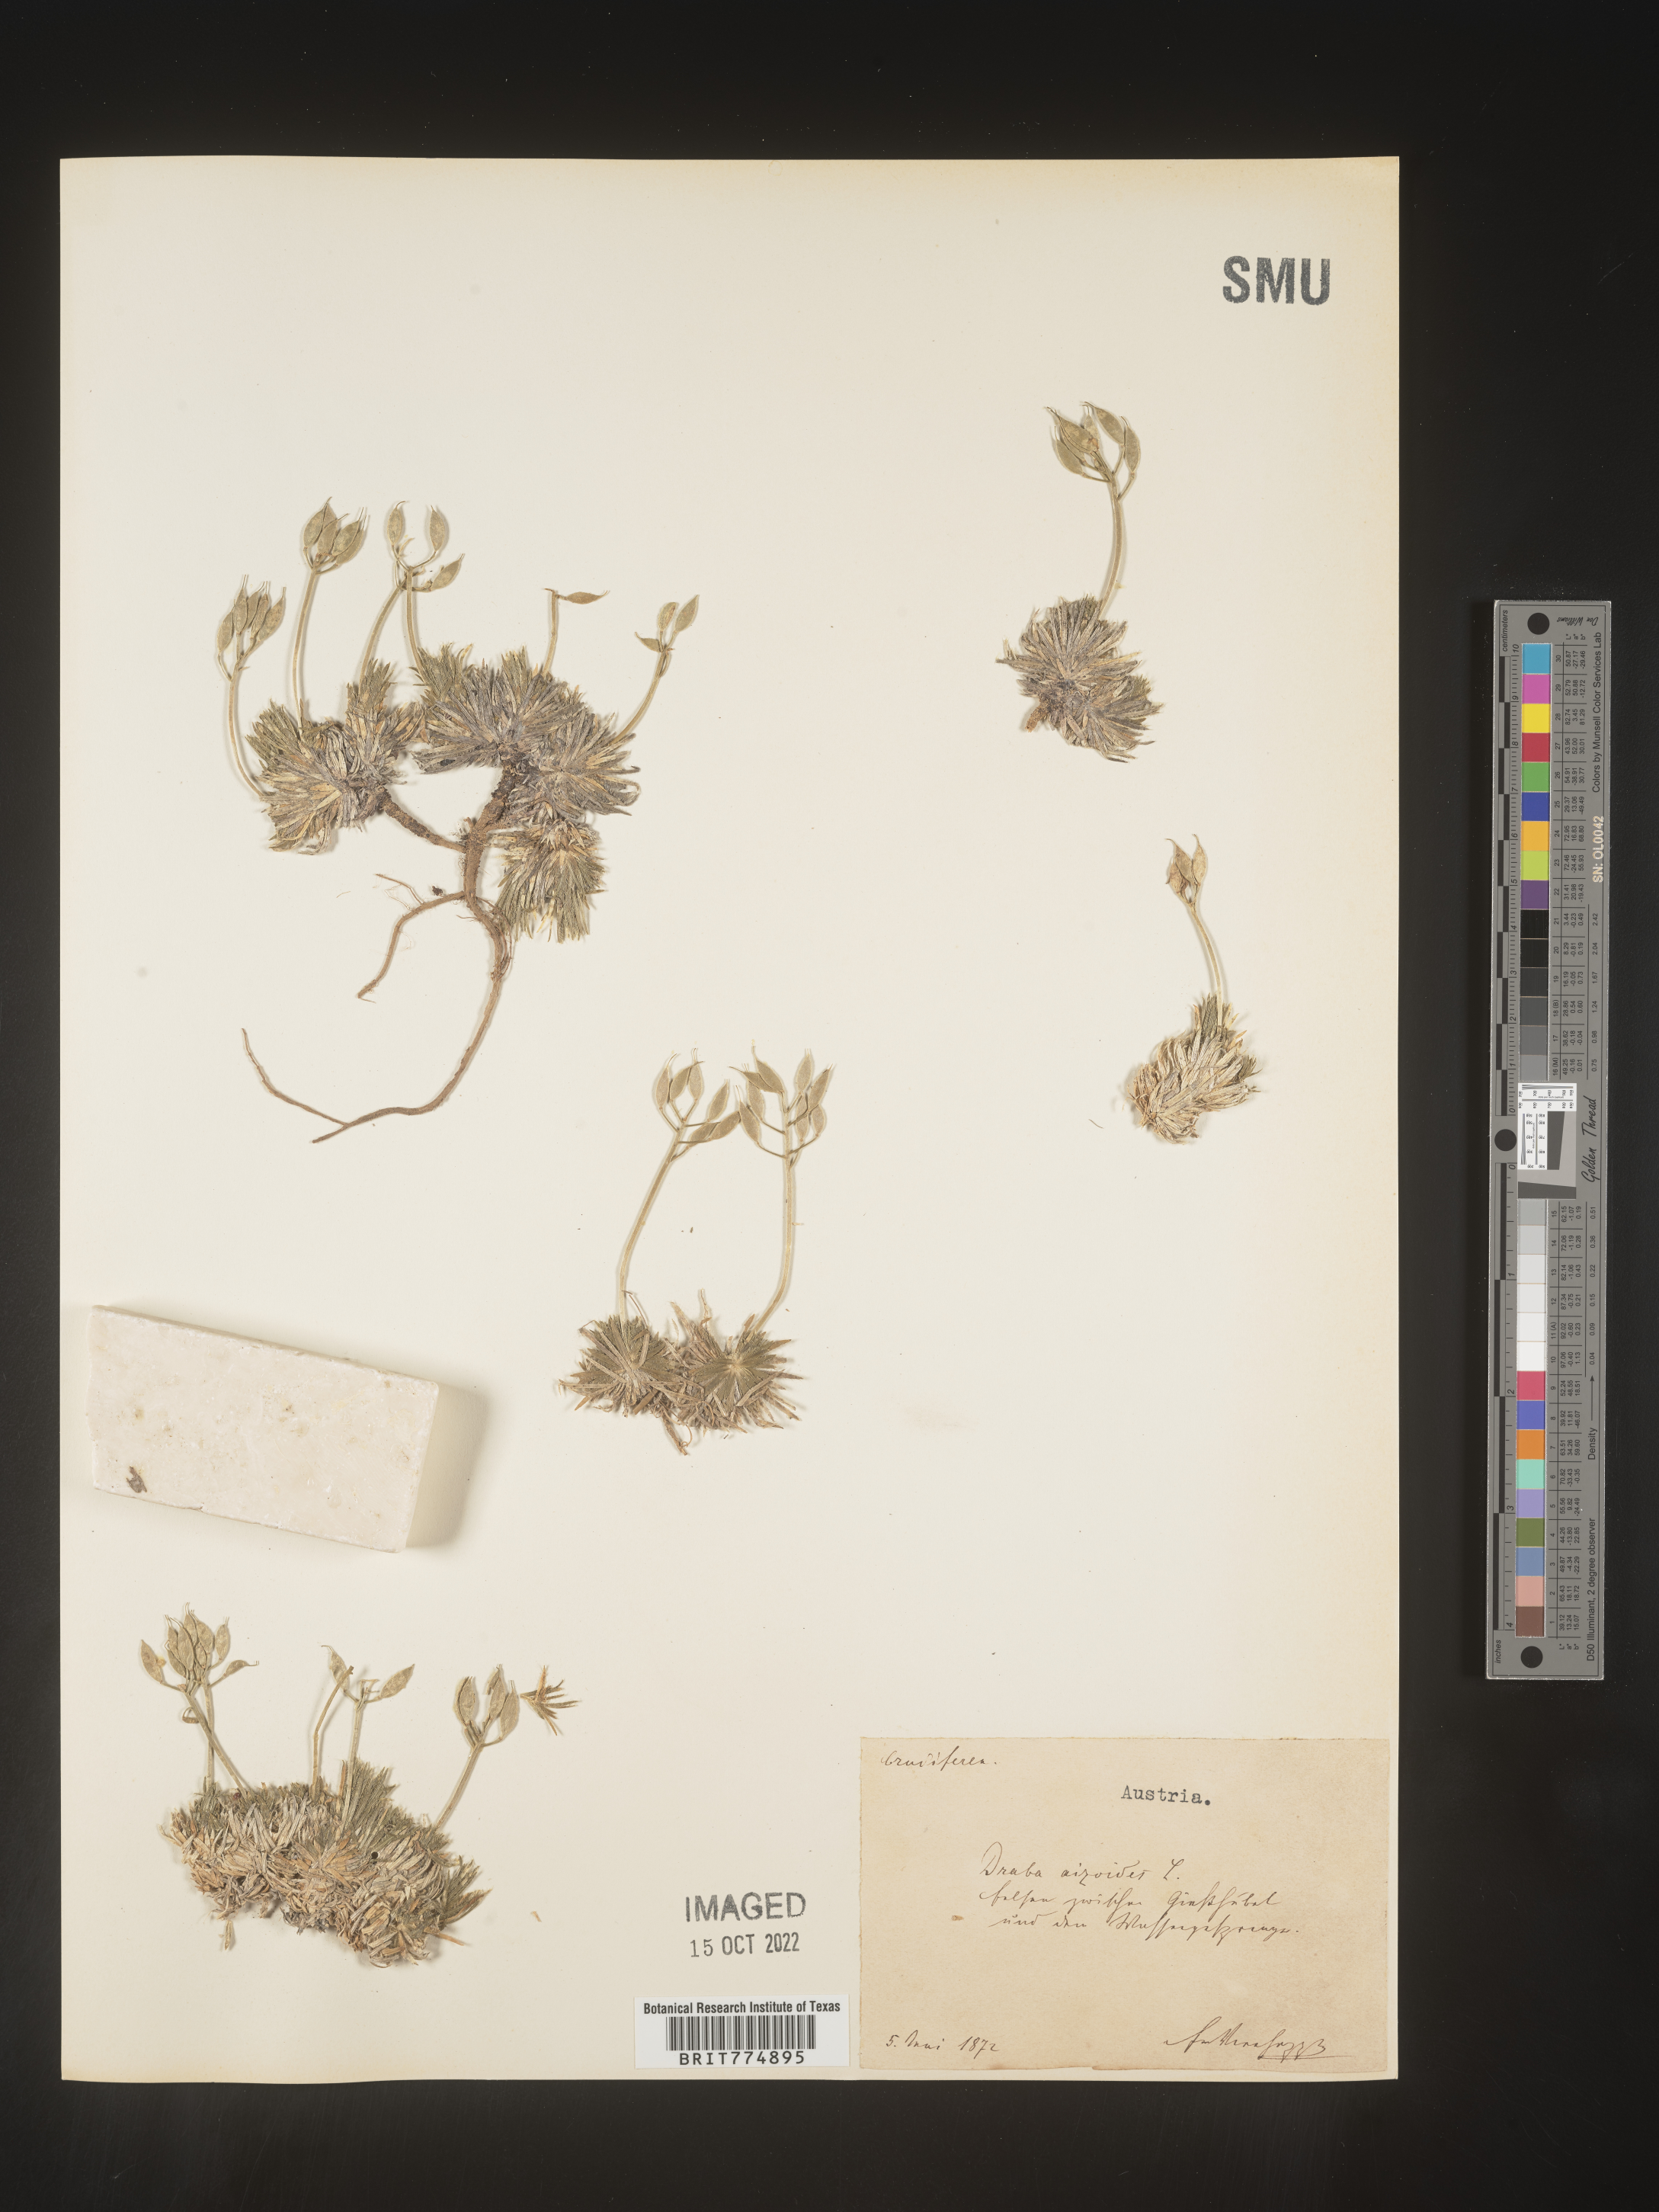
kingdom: Plantae
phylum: Tracheophyta
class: Magnoliopsida
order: Brassicales
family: Brassicaceae
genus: Draba
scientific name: Draba
